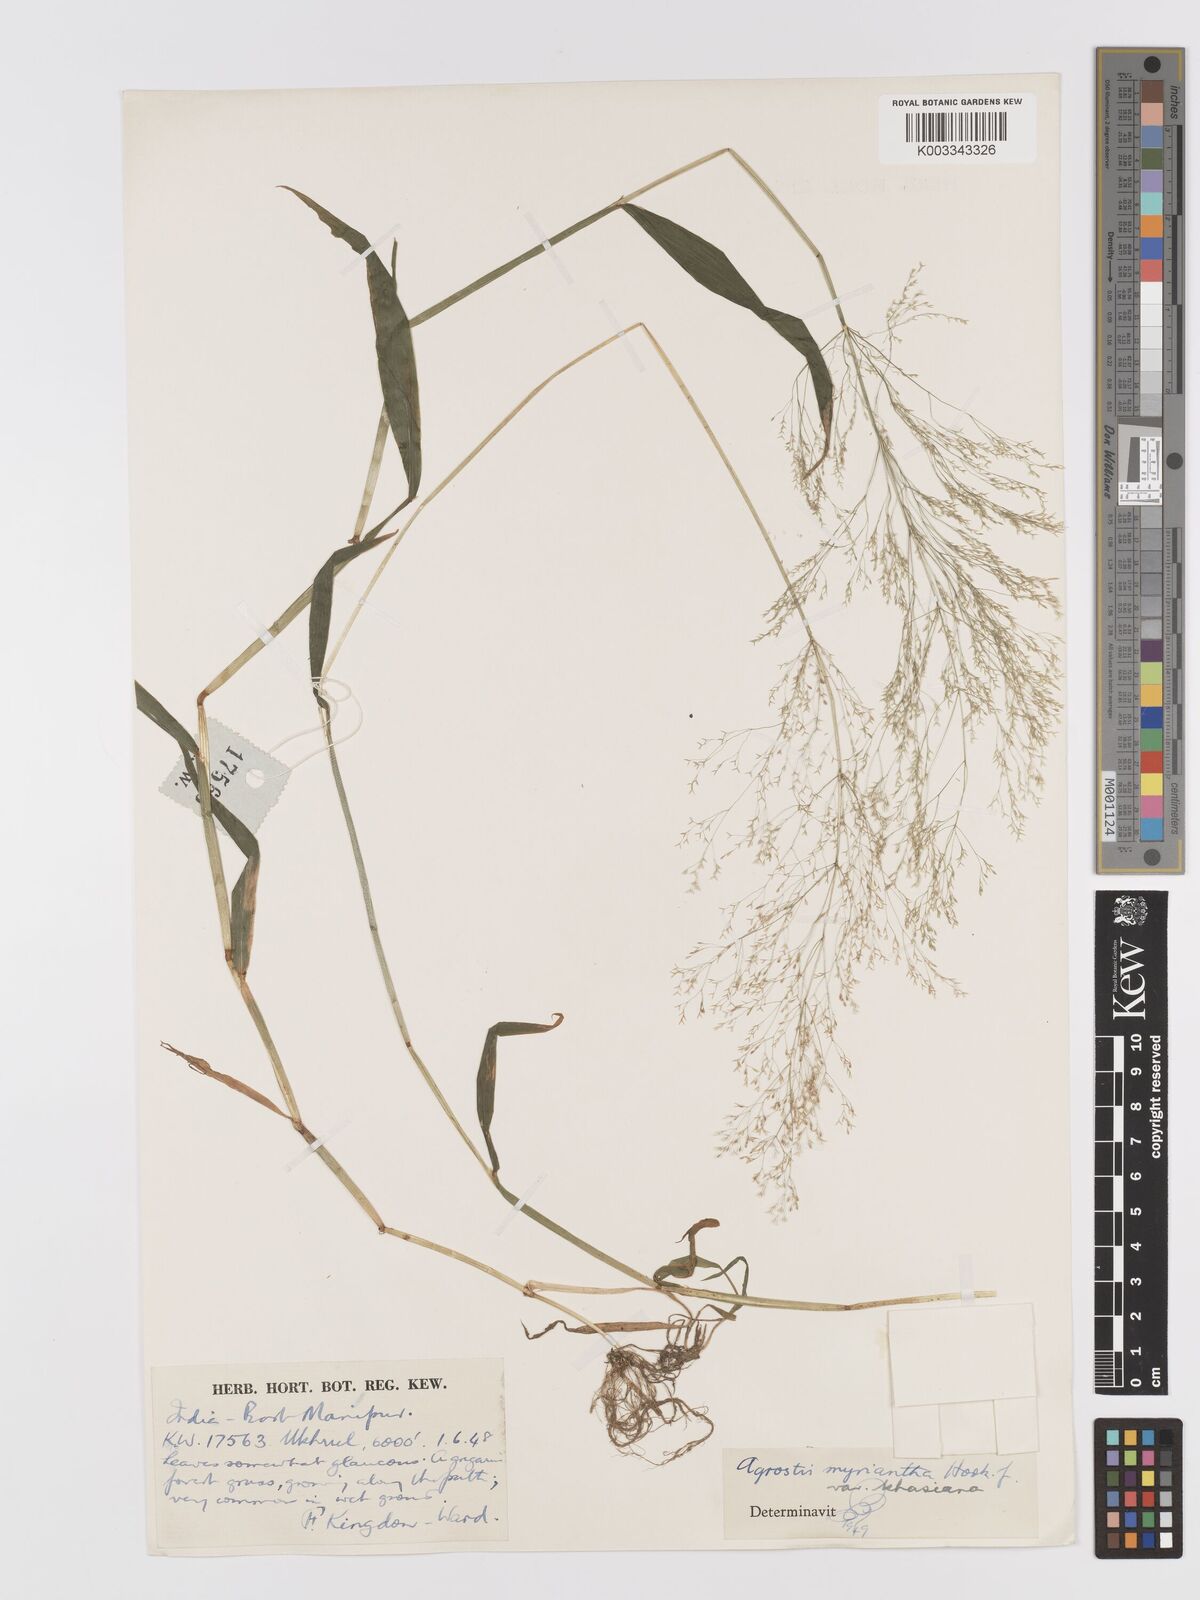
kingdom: Plantae
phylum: Tracheophyta
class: Liliopsida
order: Poales
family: Poaceae
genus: Agrostis
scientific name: Agrostis micrantha
